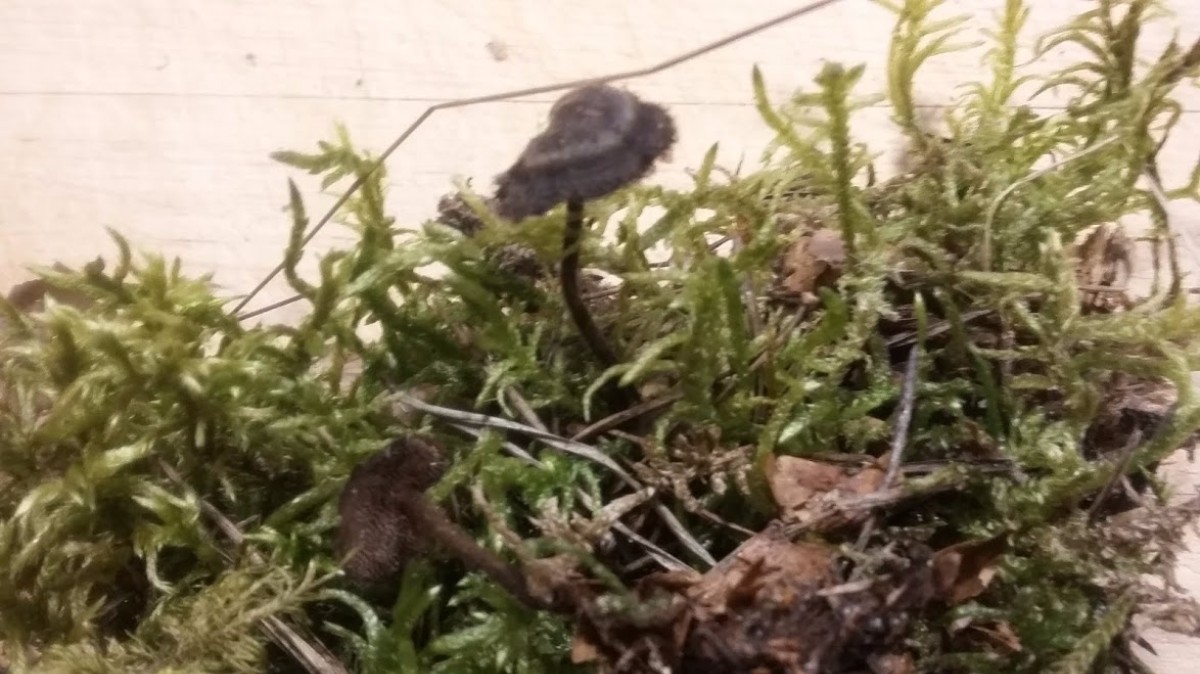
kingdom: Fungi
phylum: Basidiomycota
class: Agaricomycetes
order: Russulales
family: Auriscalpiaceae
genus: Auriscalpium
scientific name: Auriscalpium vulgare
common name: koglepigsvamp
